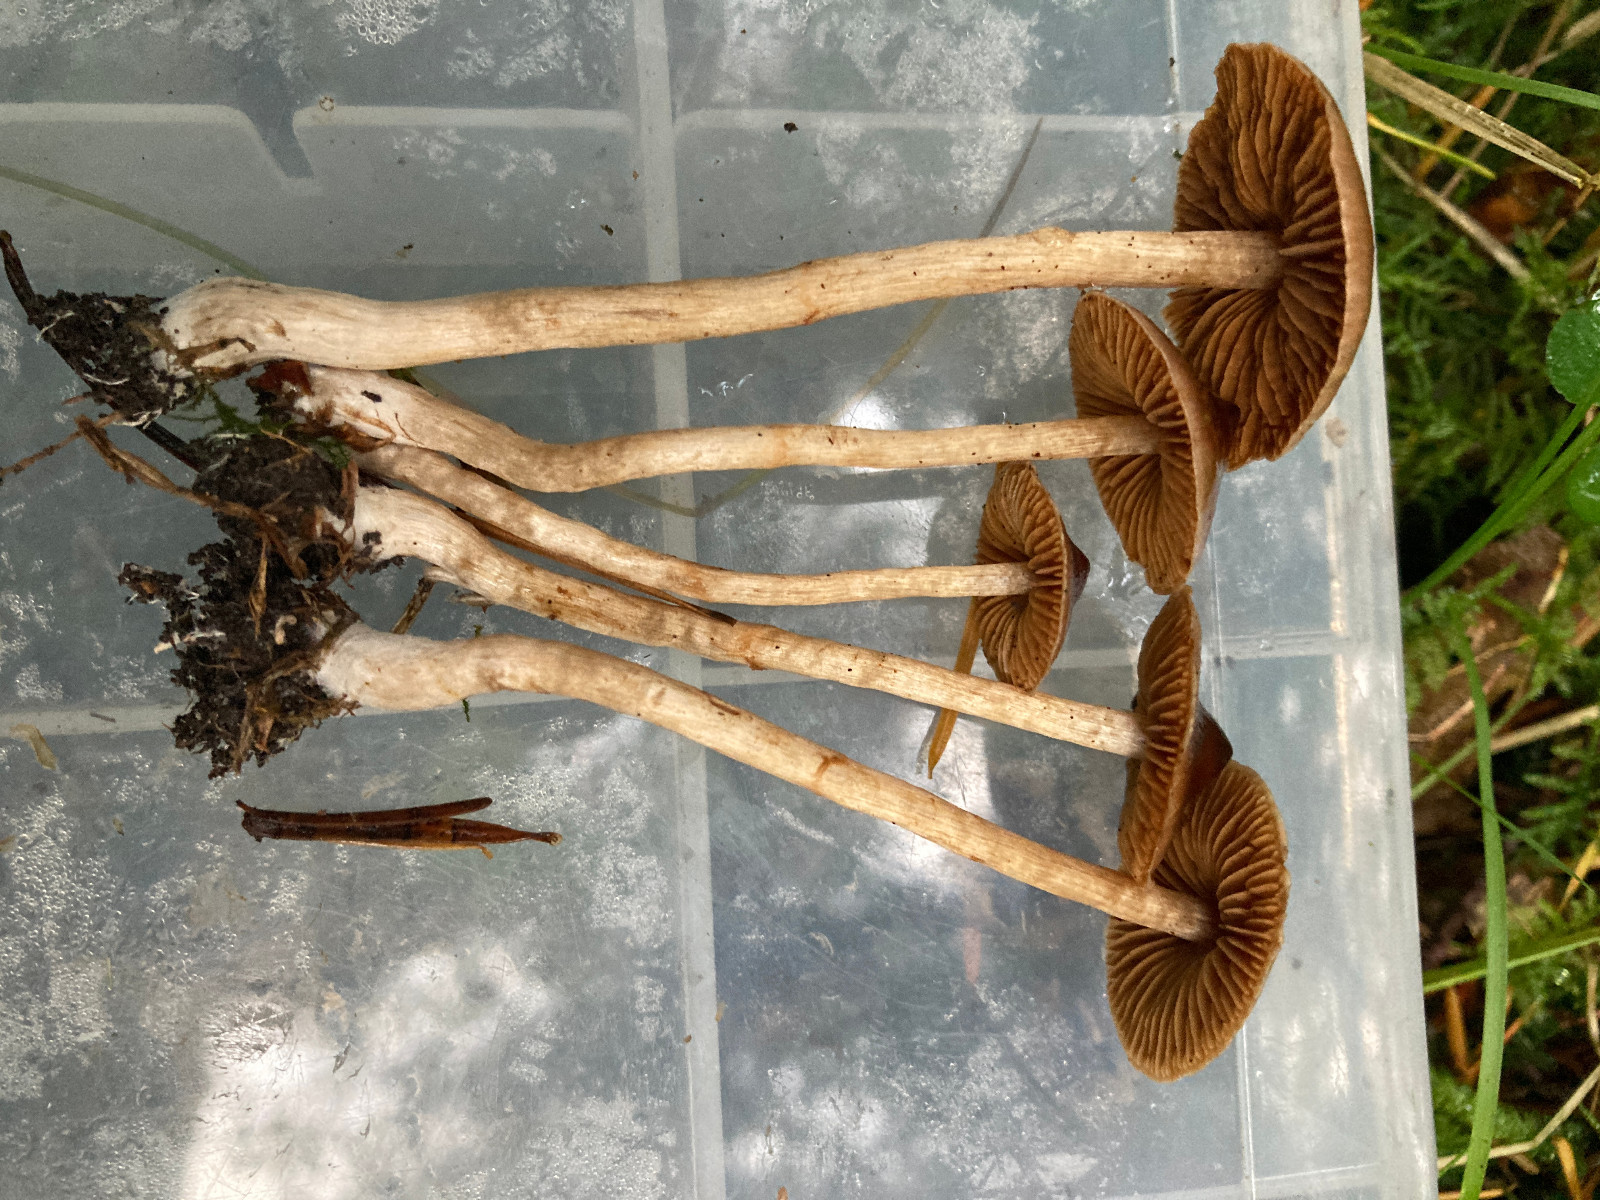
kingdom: Fungi
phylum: Basidiomycota
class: Agaricomycetes
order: Agaricales
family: Cortinariaceae
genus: Cortinarius
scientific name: Cortinarius
